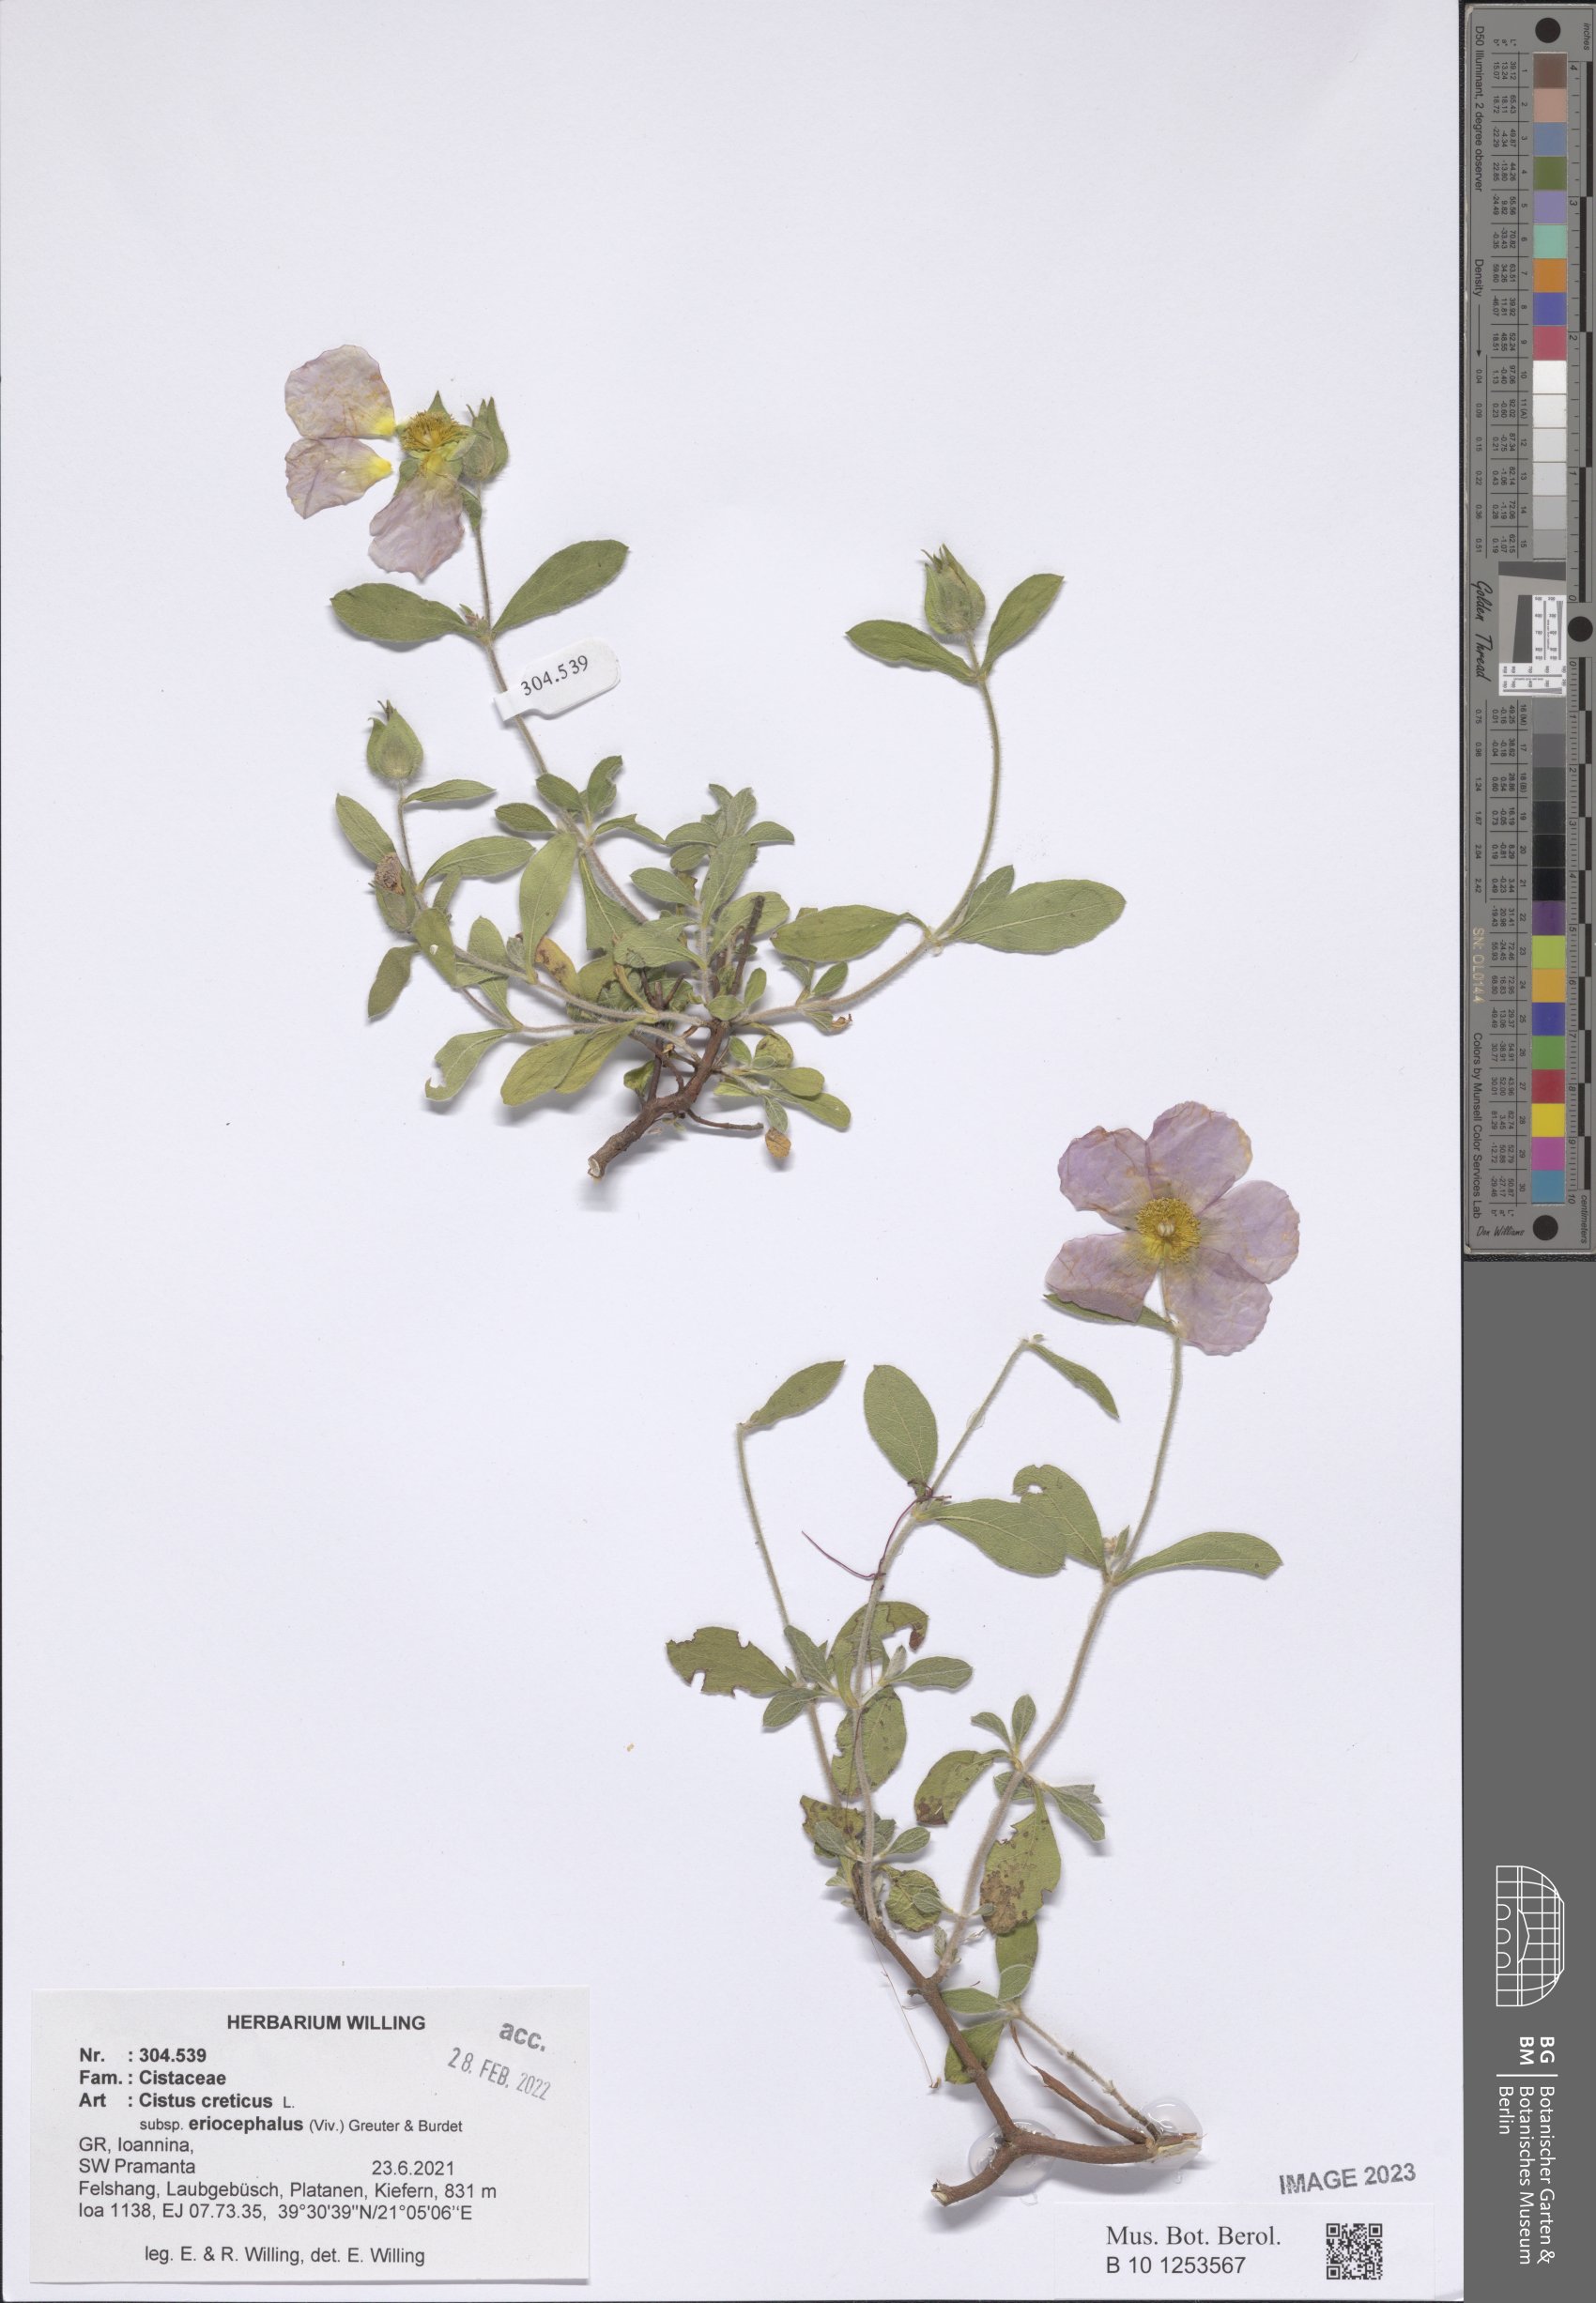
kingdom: Plantae
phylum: Tracheophyta
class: Magnoliopsida
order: Malvales
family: Cistaceae
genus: Cistus
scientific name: Cistus tauricus
